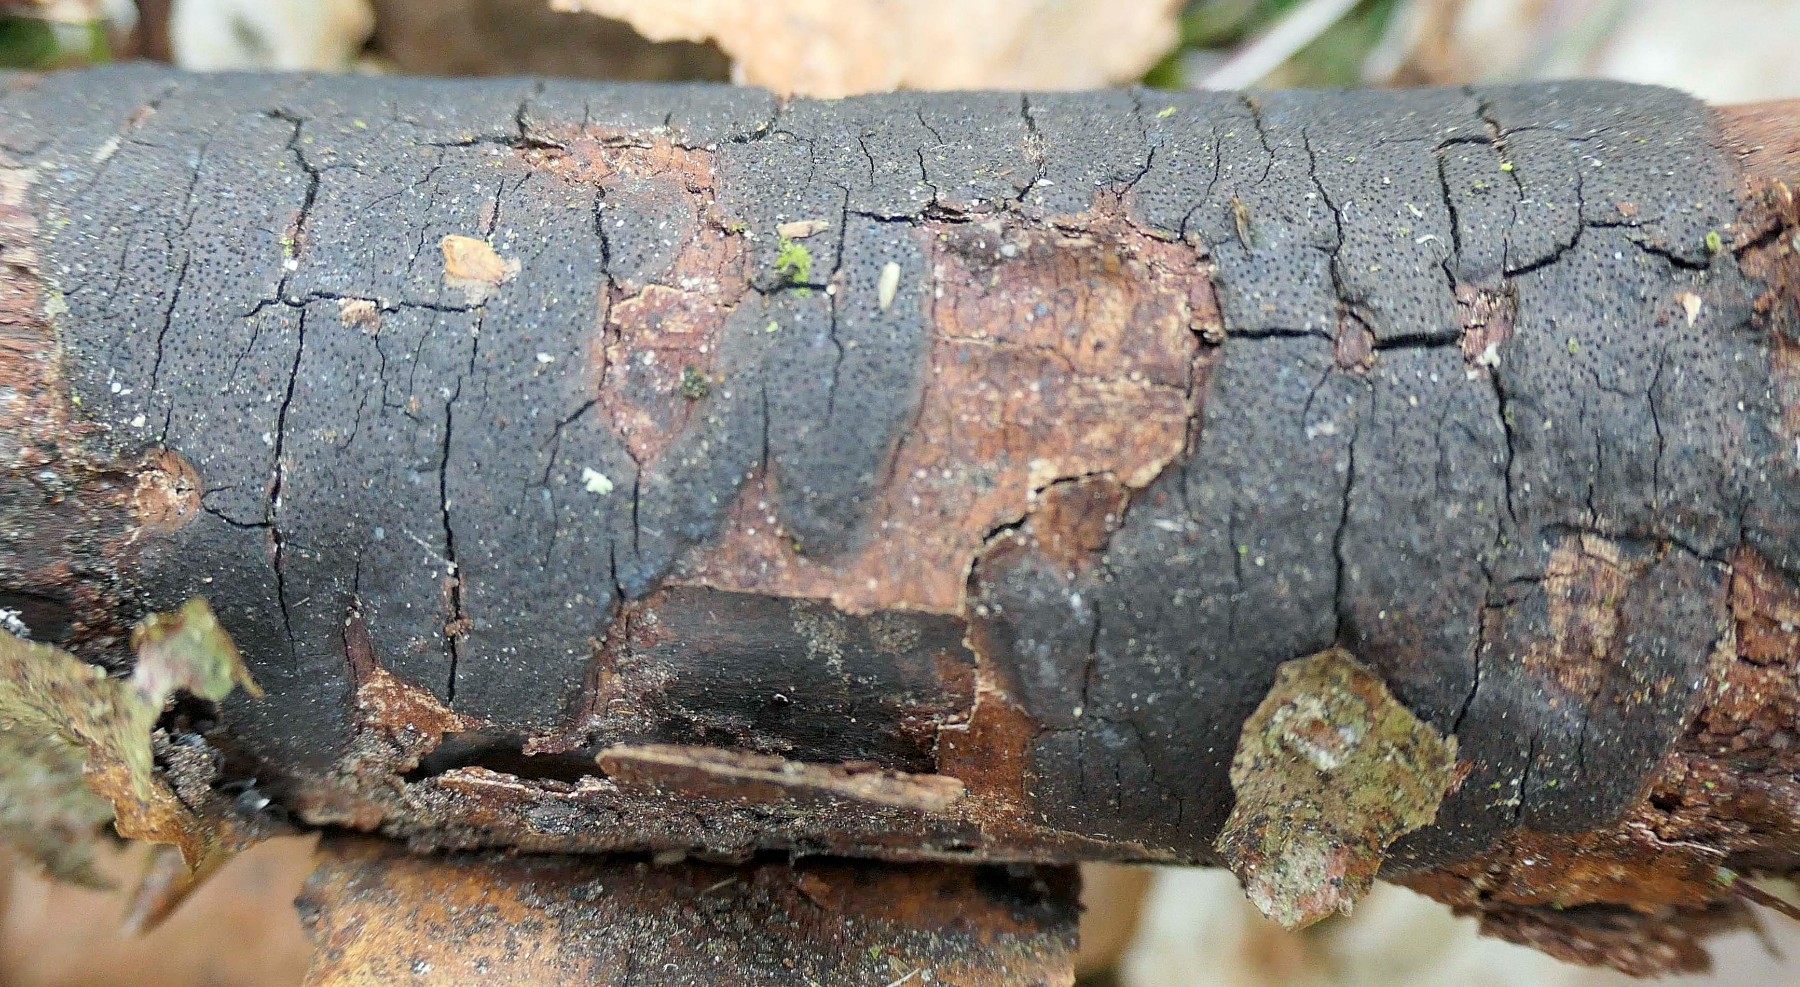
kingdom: Fungi
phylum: Ascomycota
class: Sordariomycetes
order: Xylariales
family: Diatrypaceae
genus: Diatrype
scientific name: Diatrype
